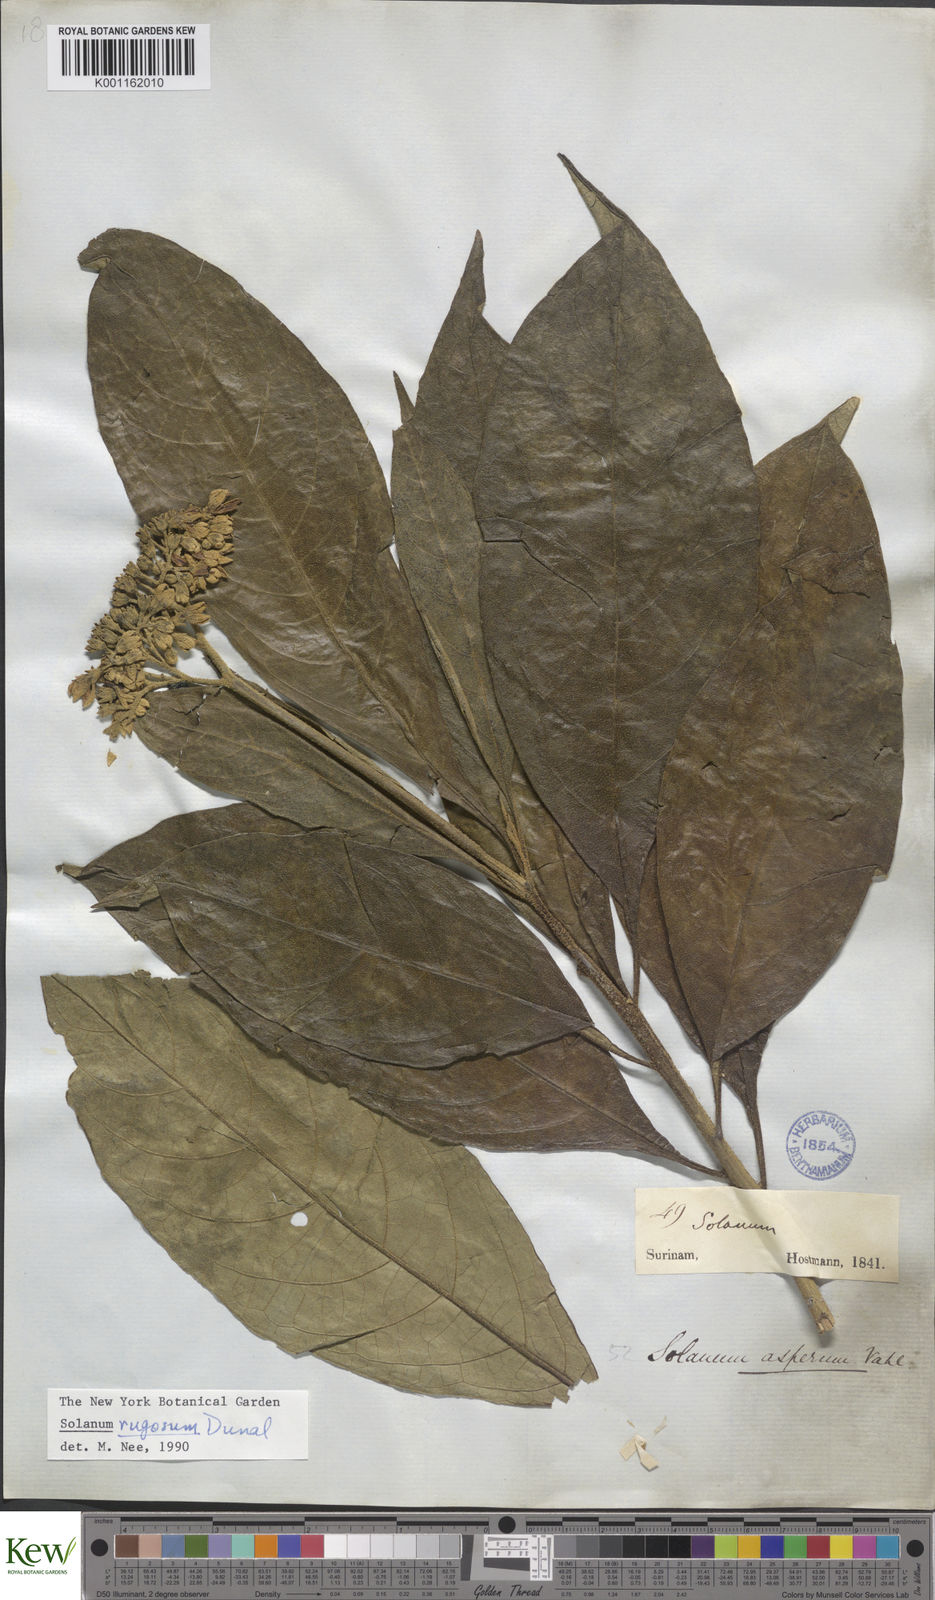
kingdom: Plantae
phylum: Tracheophyta
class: Magnoliopsida
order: Solanales
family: Solanaceae
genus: Solanum
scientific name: Solanum rugosum
